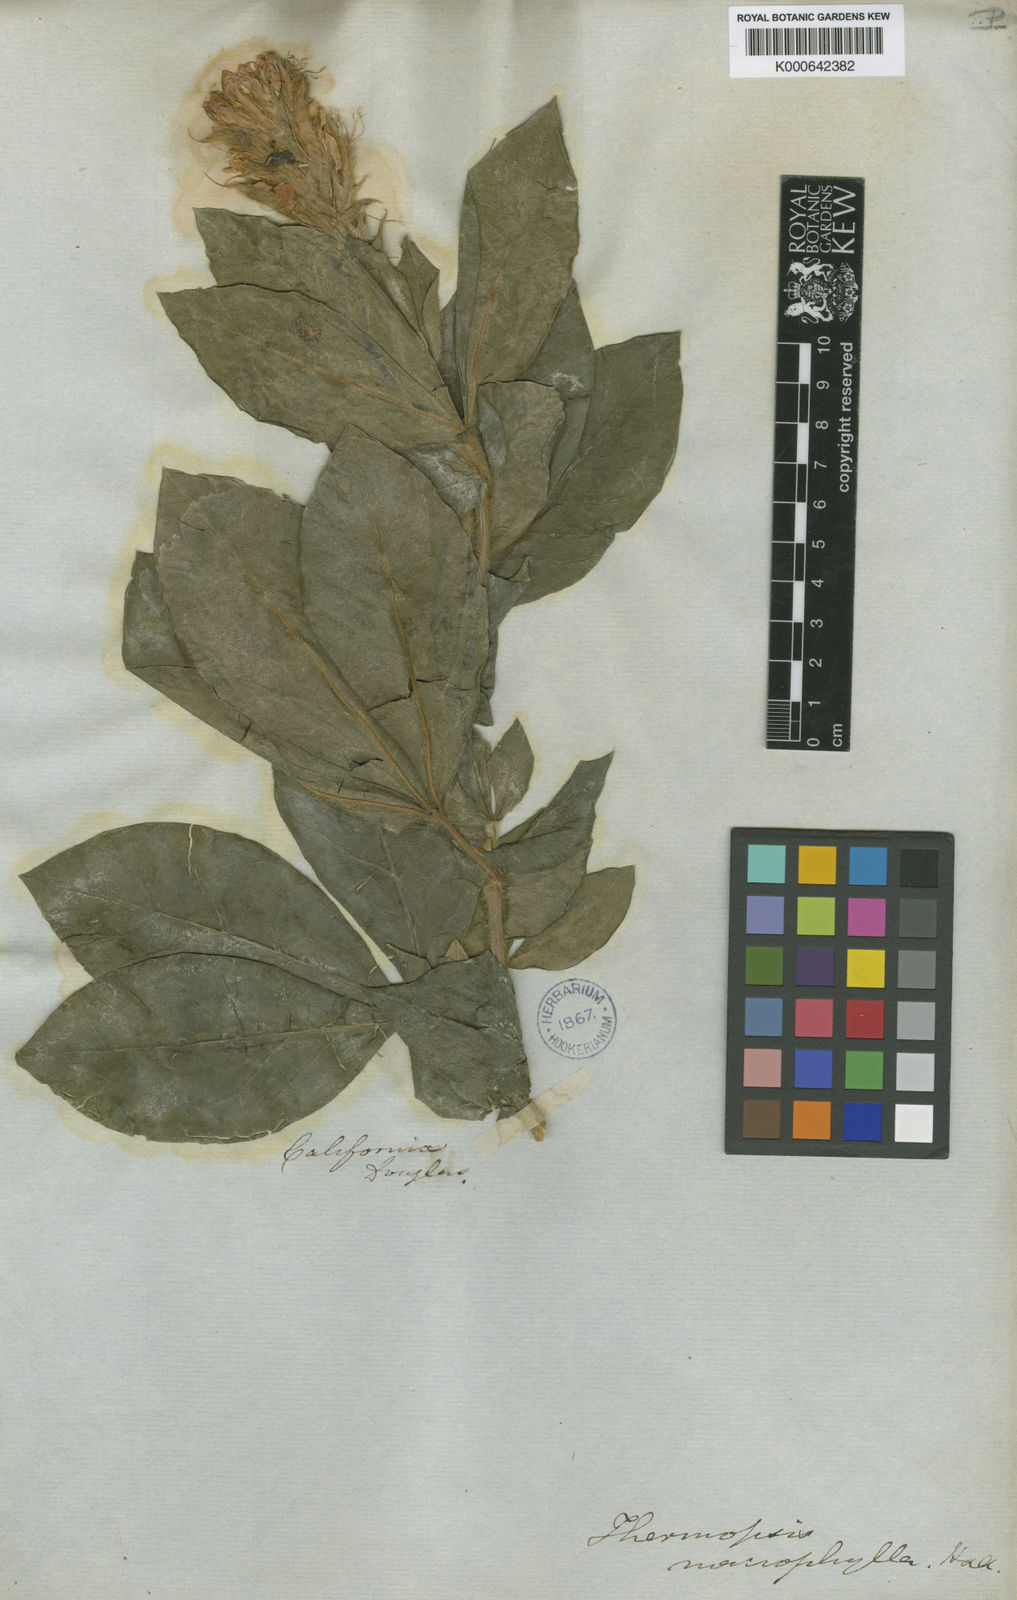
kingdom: Plantae
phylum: Tracheophyta
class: Magnoliopsida
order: Fabales
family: Fabaceae
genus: Thermopsis
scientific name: Thermopsis macrophylla
